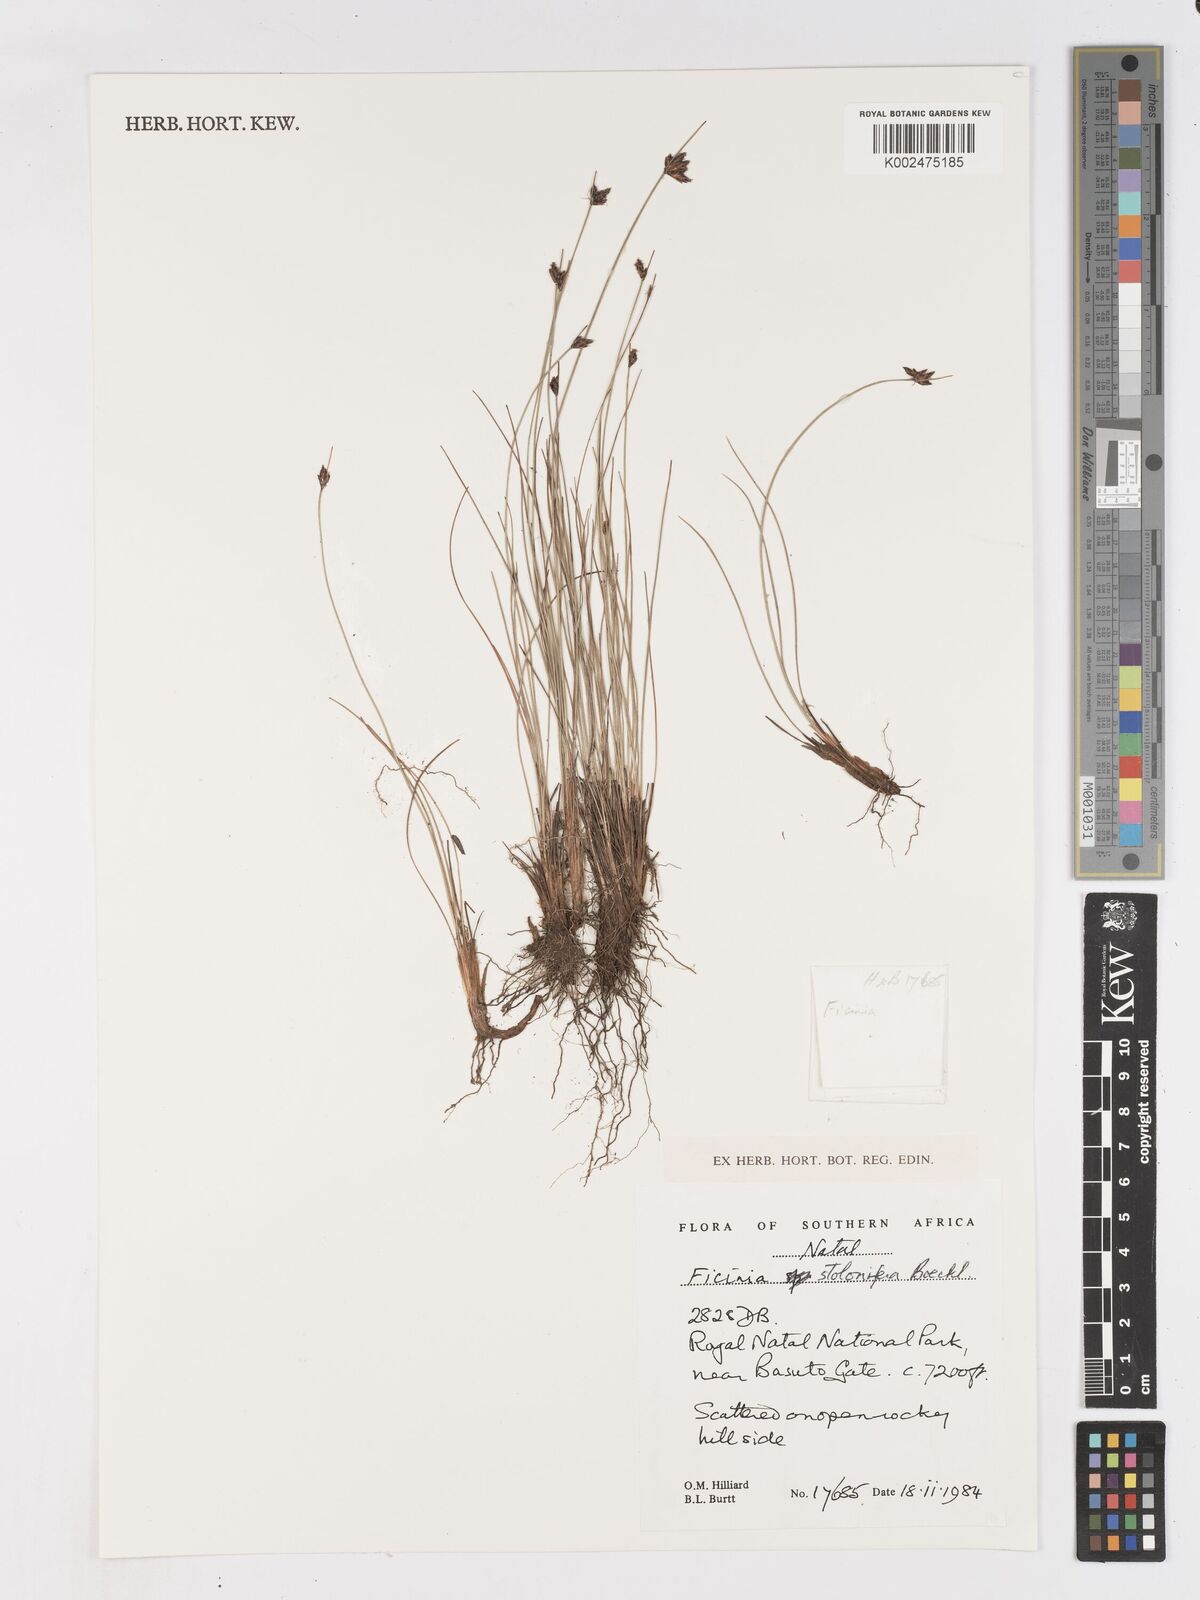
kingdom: Plantae
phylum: Tracheophyta
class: Liliopsida
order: Poales
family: Cyperaceae
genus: Ficinia
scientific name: Ficinia stolonifera
